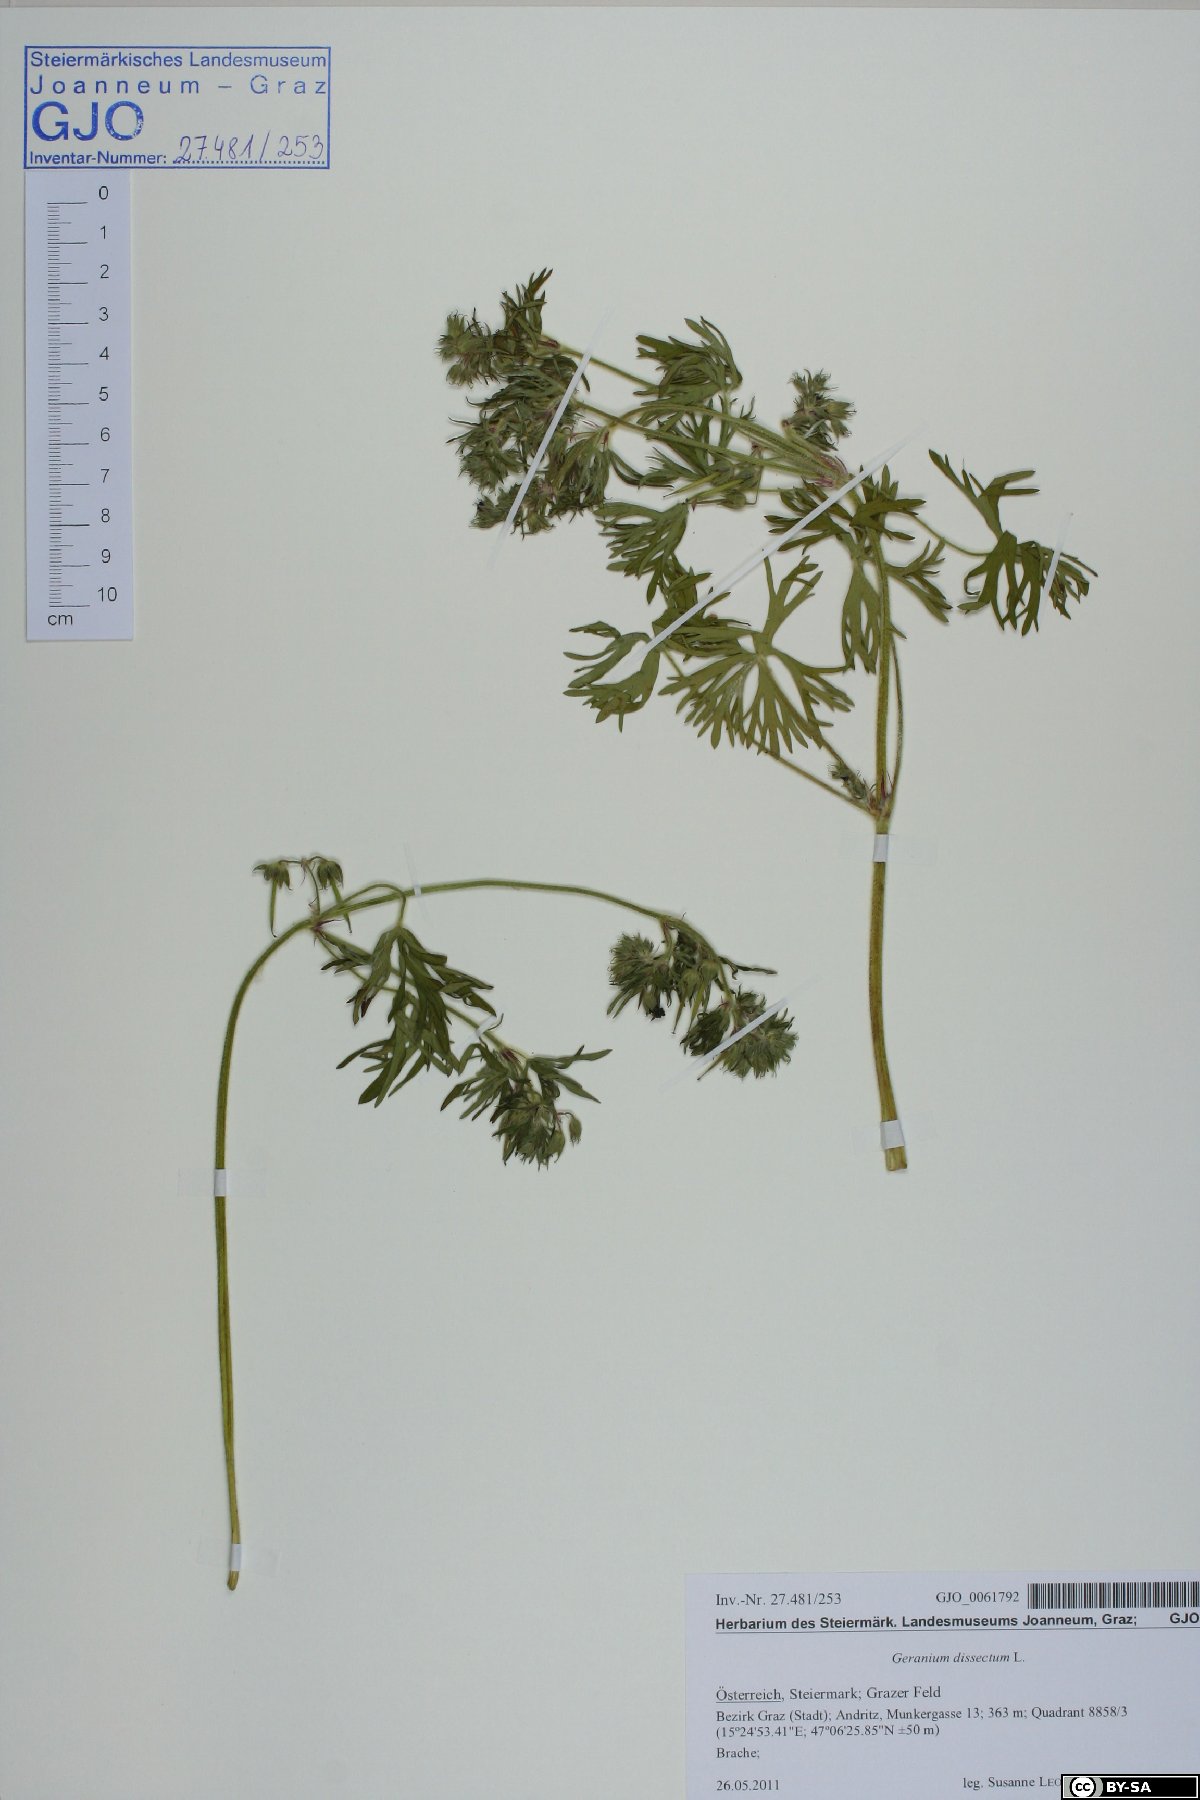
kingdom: Plantae
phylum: Tracheophyta
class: Magnoliopsida
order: Geraniales
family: Geraniaceae
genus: Geranium
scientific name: Geranium dissectum
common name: Cut-leaved crane's-bill
